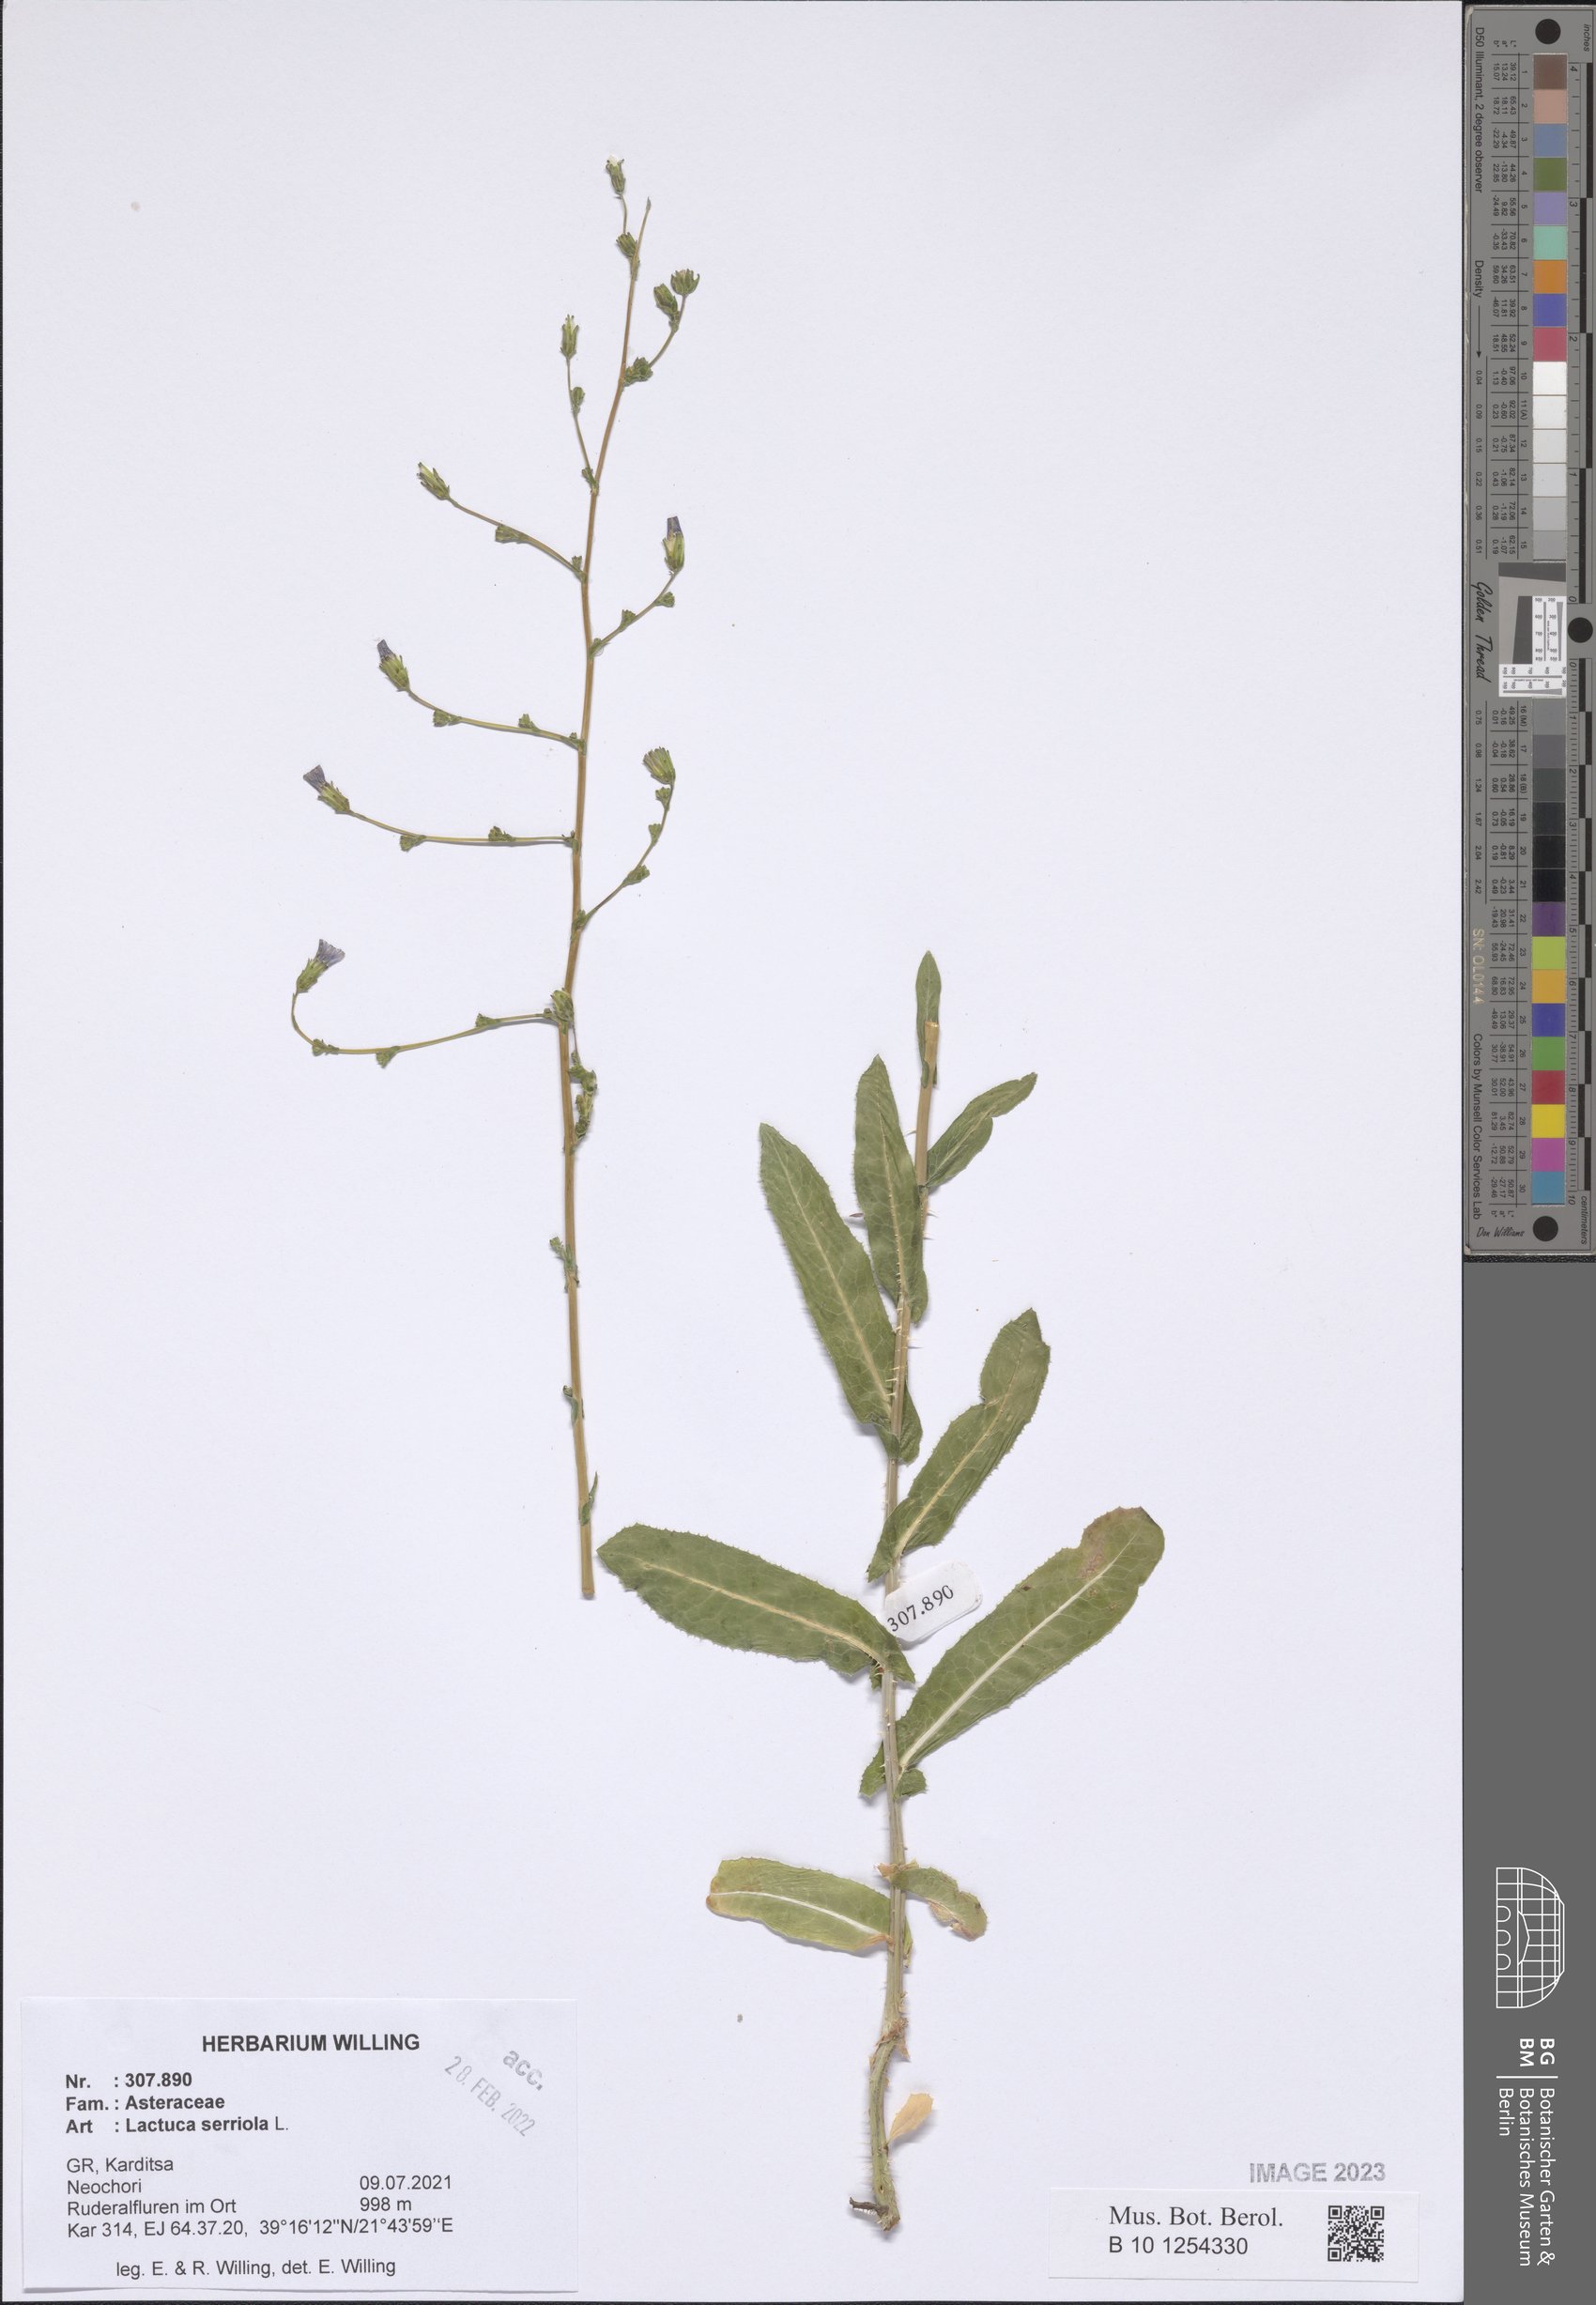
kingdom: Plantae
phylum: Tracheophyta
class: Magnoliopsida
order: Asterales
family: Asteraceae
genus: Lactuca
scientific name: Lactuca serriola
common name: Prickly lettuce
